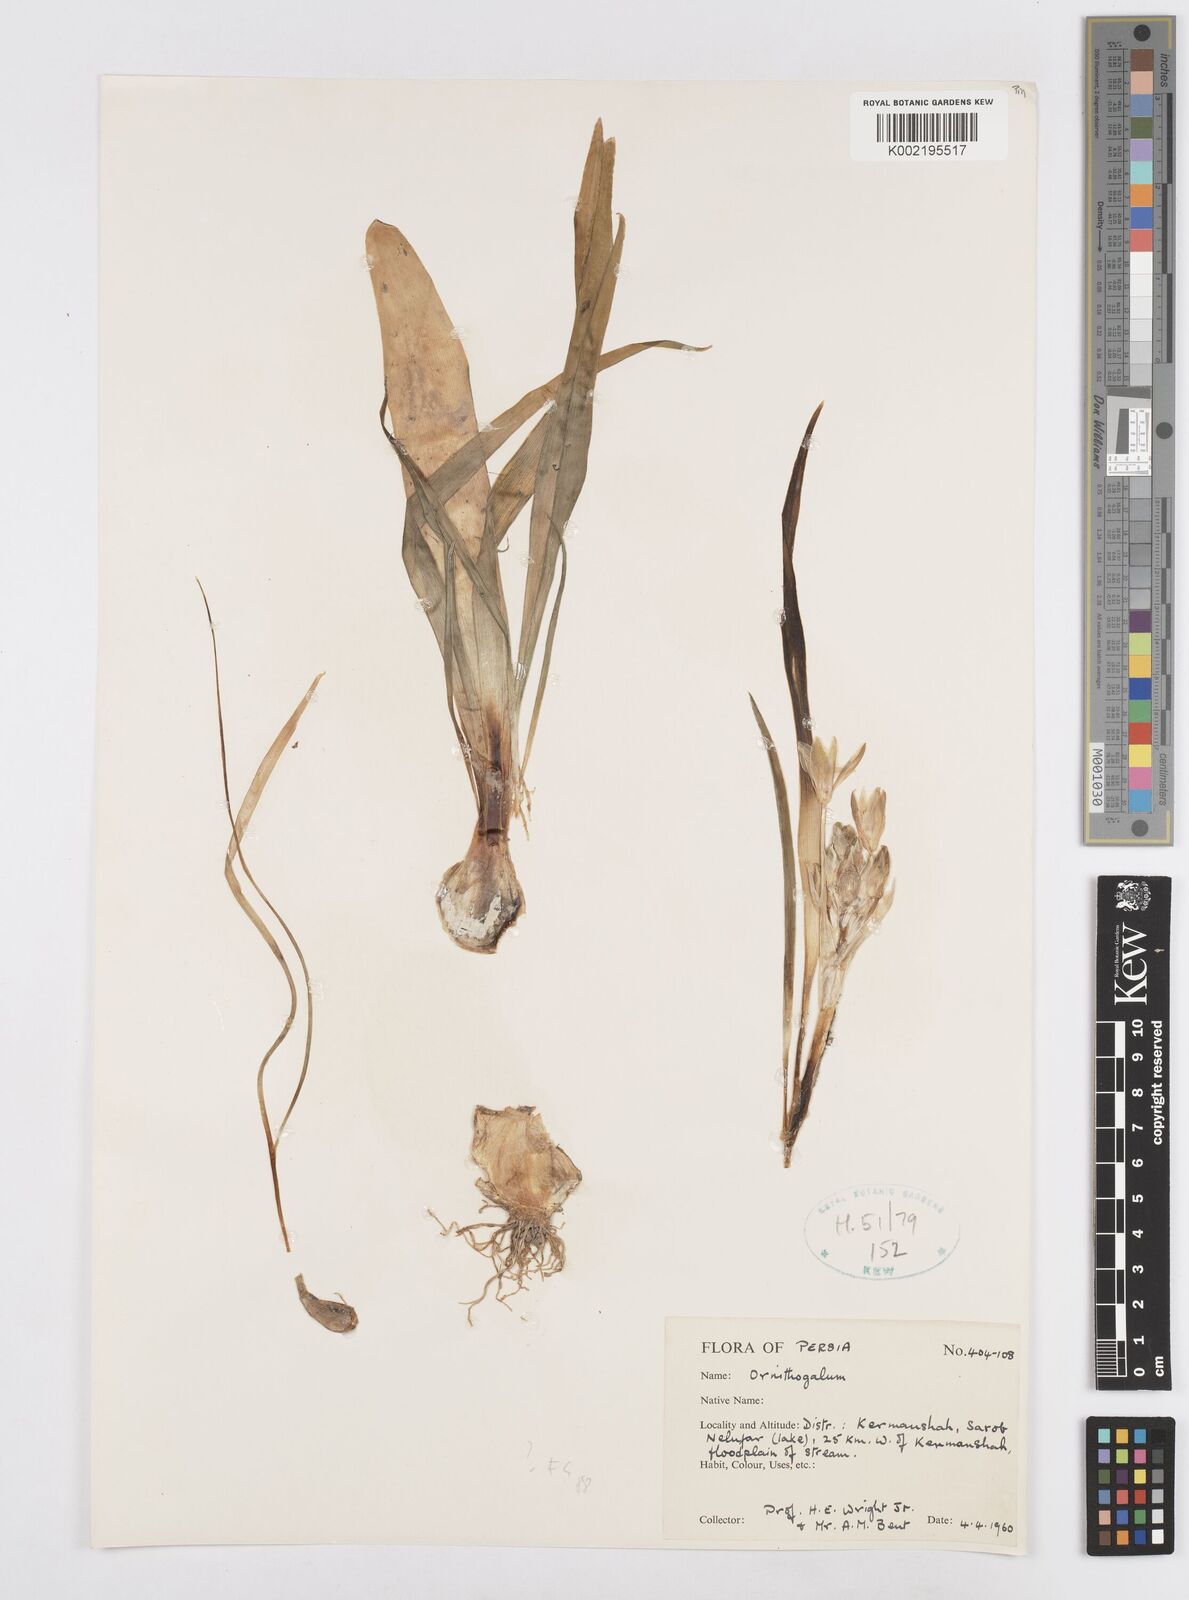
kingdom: Plantae
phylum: Tracheophyta
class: Liliopsida
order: Asparagales
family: Asparagaceae
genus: Ornithogalum
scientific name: Ornithogalum
